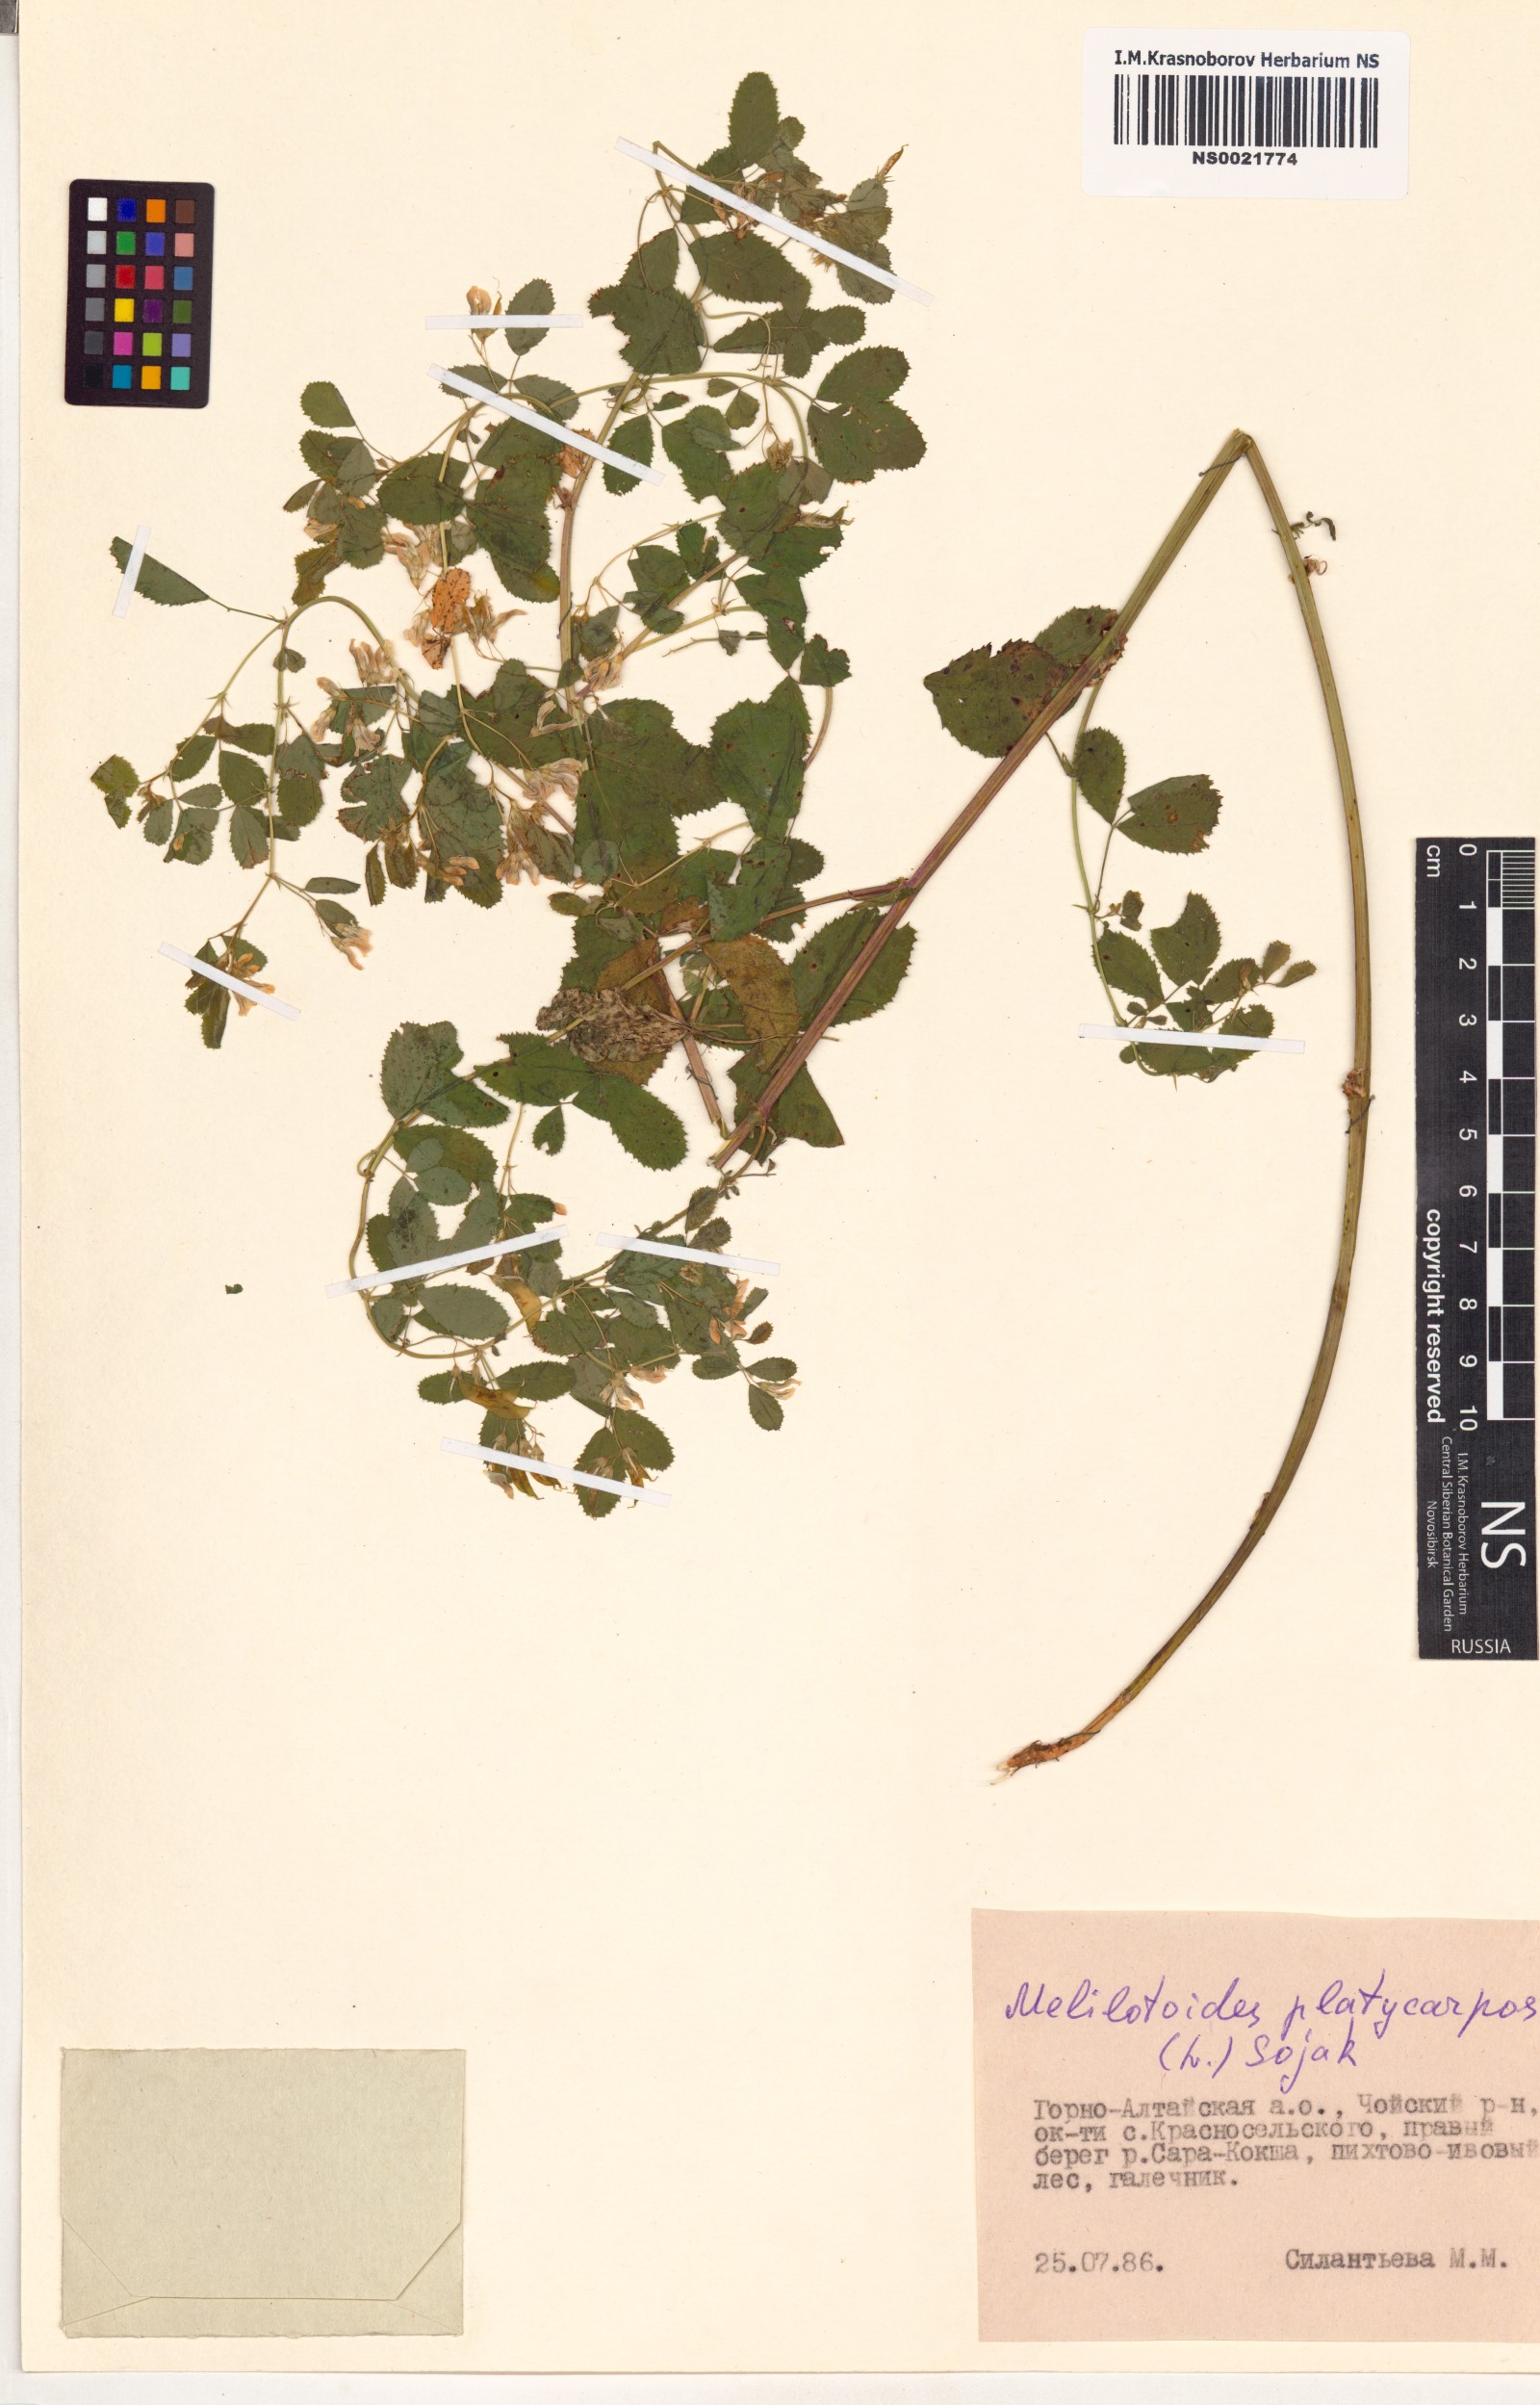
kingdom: Plantae
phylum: Tracheophyta
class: Magnoliopsida
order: Fabales
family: Fabaceae
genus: Medicago
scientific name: Medicago platycarpos
